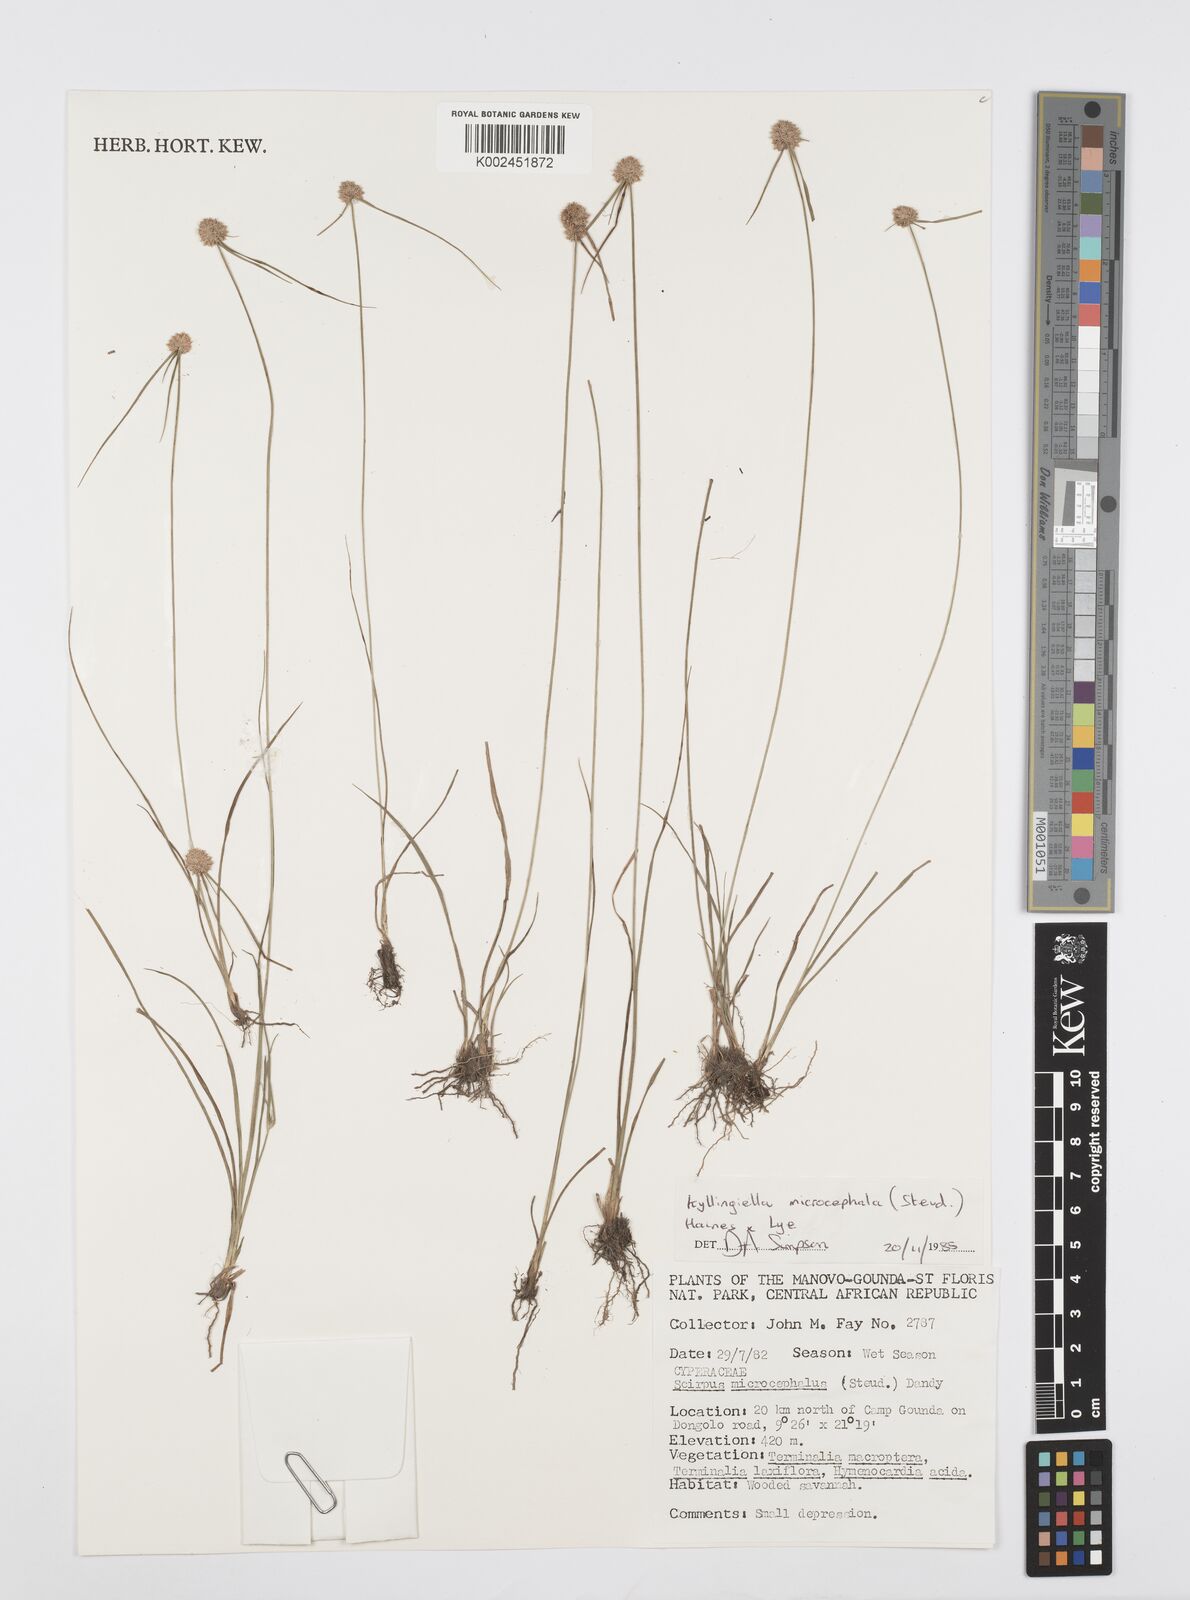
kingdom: Plantae
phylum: Tracheophyta
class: Liliopsida
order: Poales
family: Cyperaceae
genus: Cyperus
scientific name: Cyperus microcephalus
